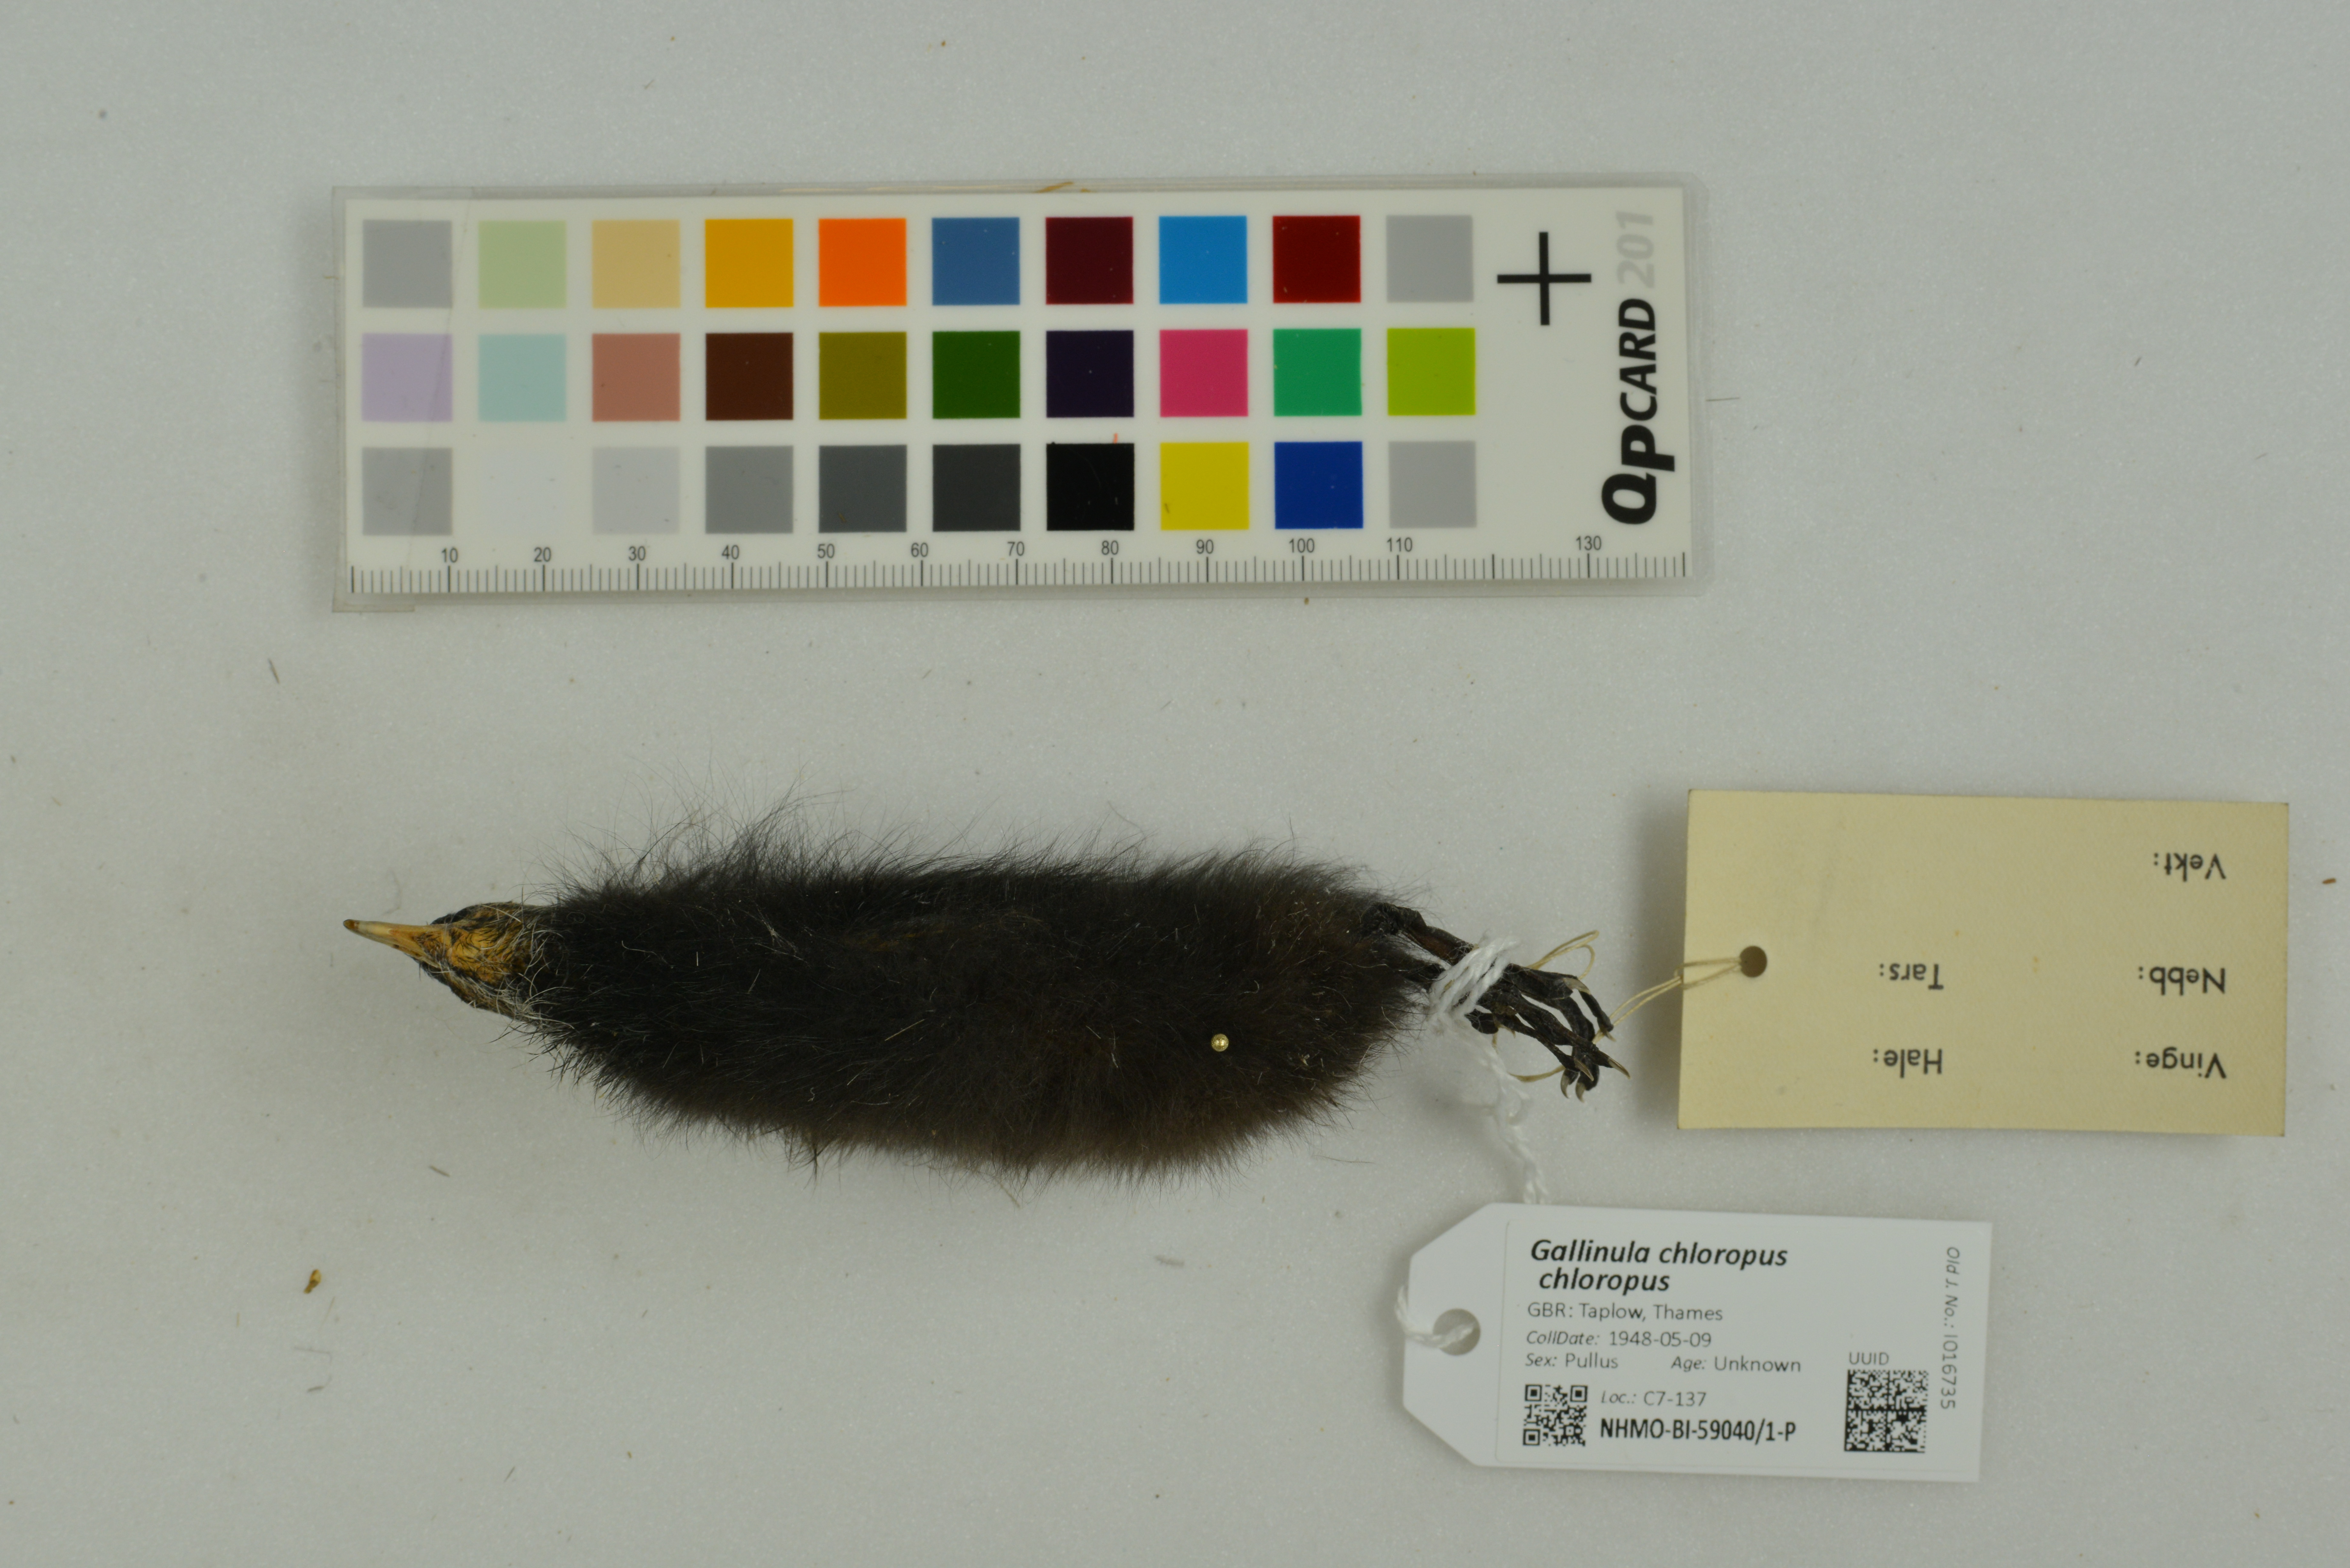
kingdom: Animalia
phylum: Chordata
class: Aves
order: Gruiformes
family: Rallidae
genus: Gallinula
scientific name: Gallinula chloropus
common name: Common moorhen
